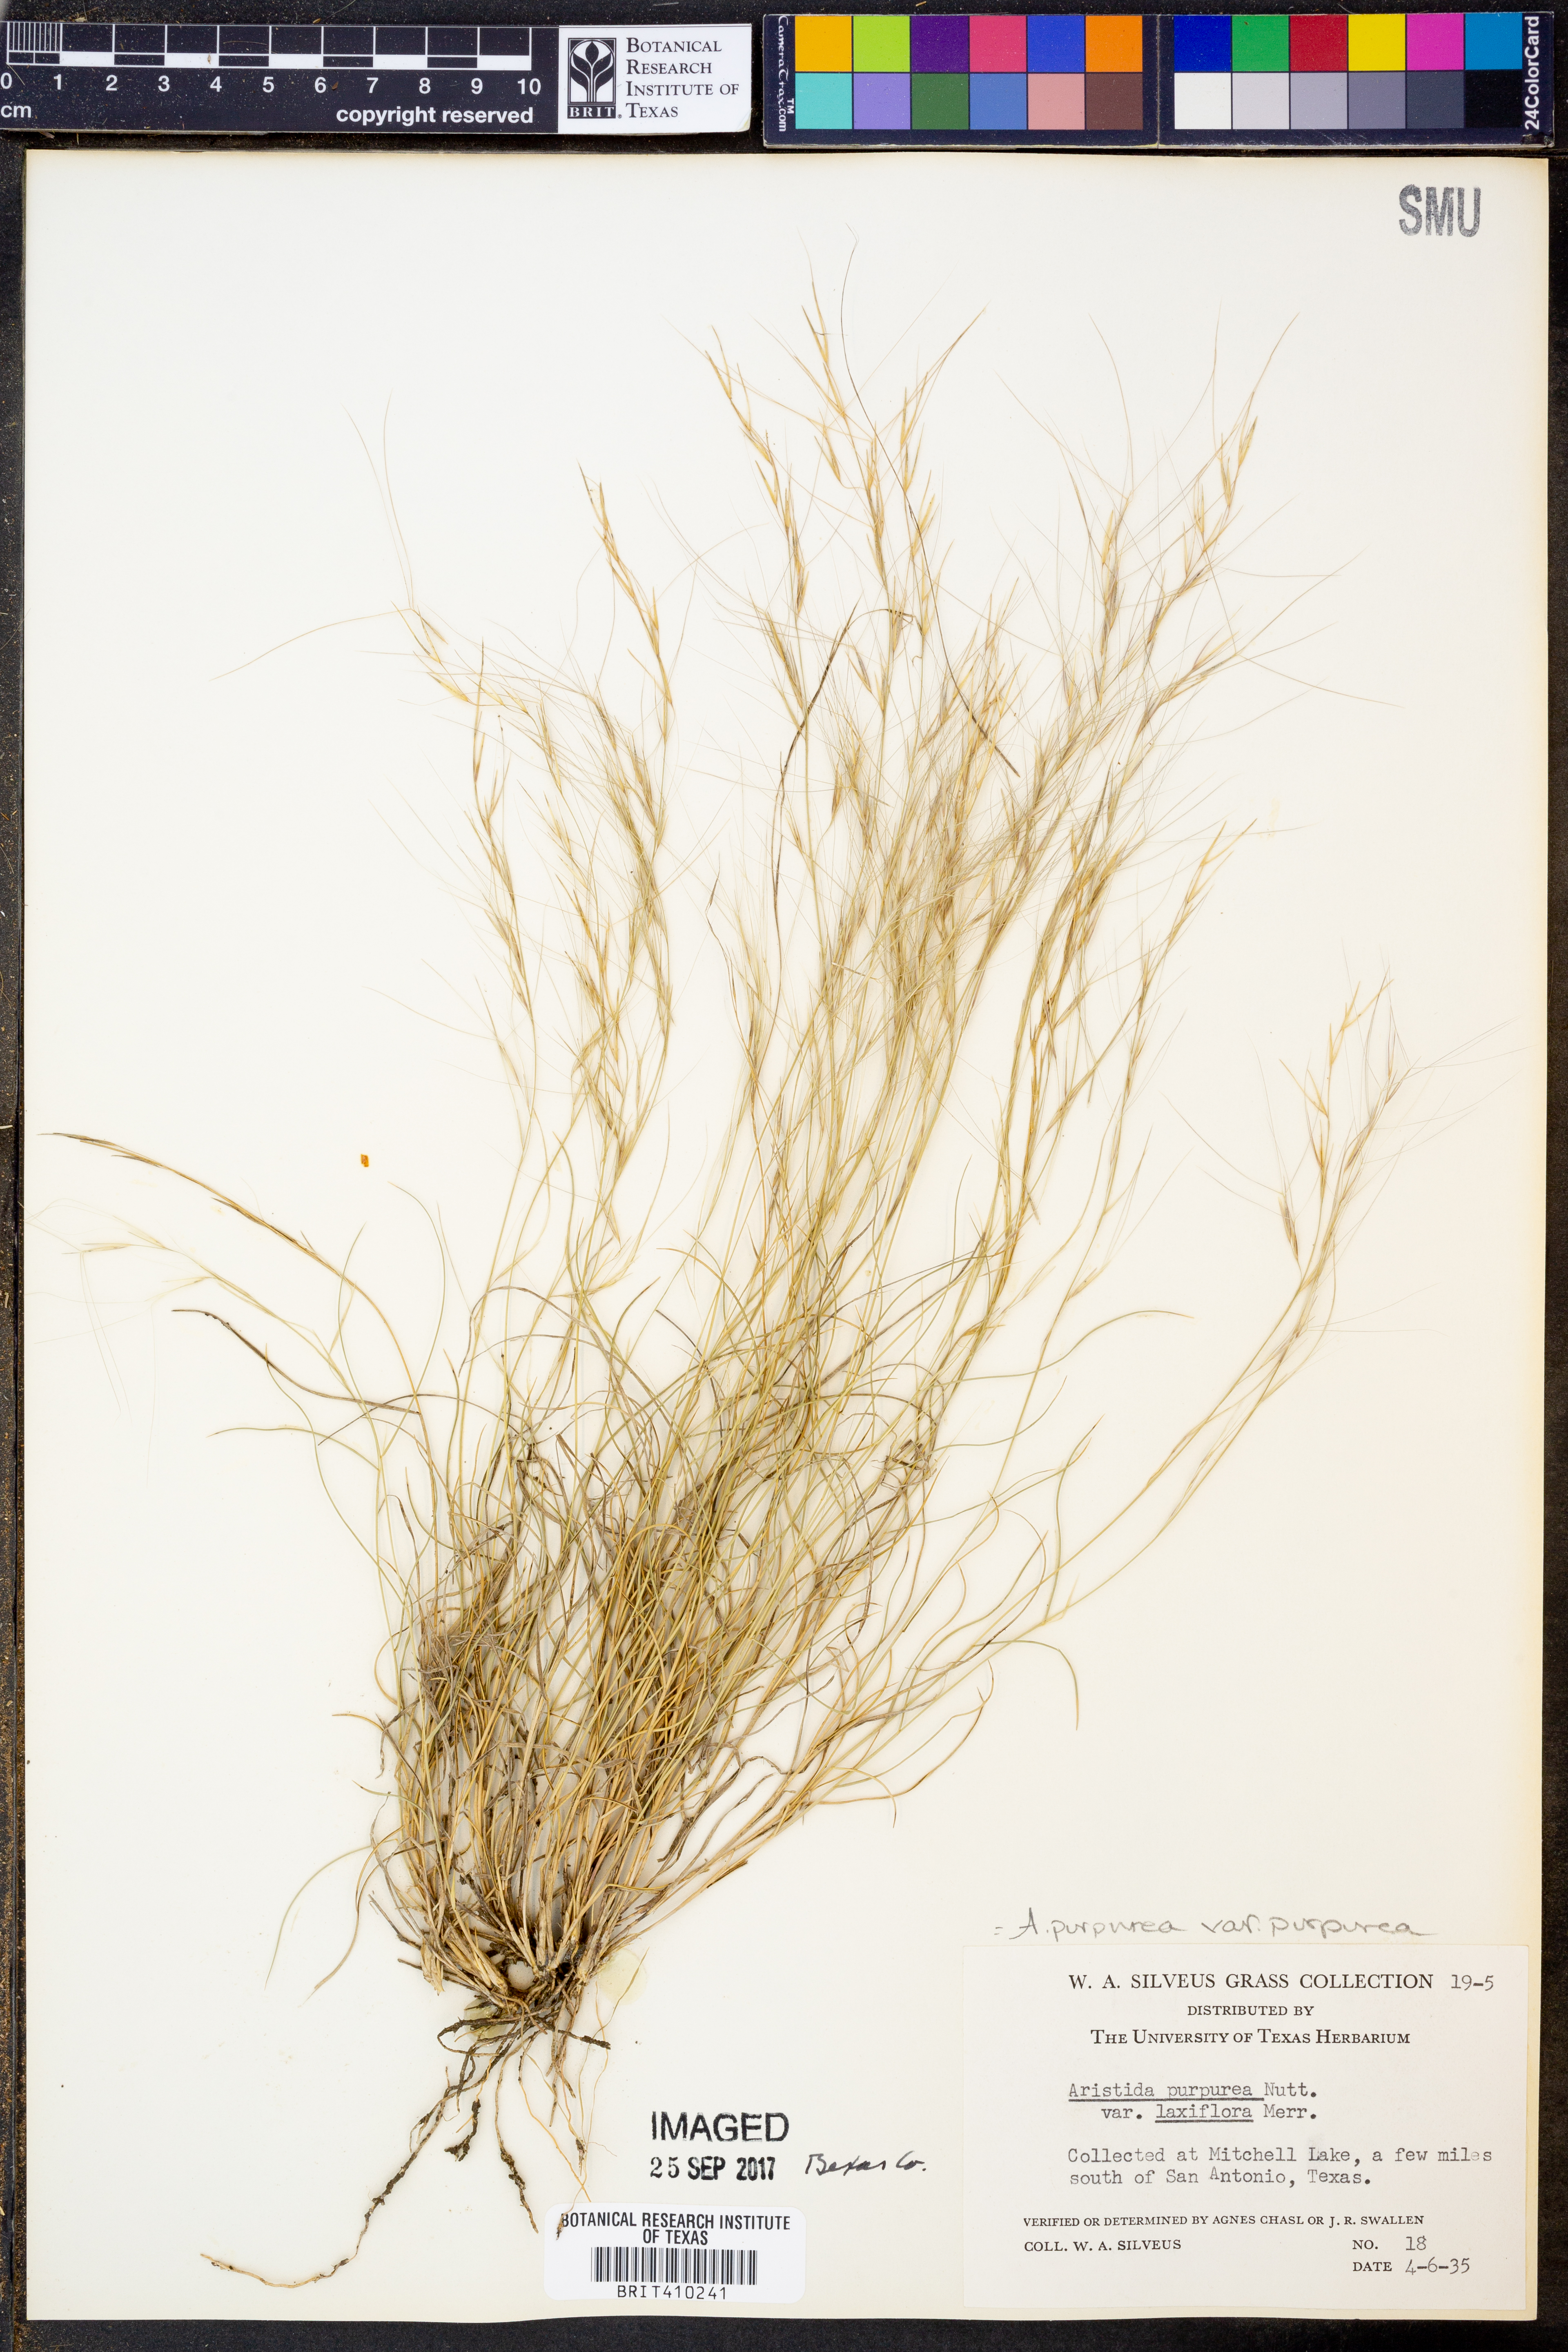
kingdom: Plantae
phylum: Tracheophyta
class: Liliopsida
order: Poales
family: Poaceae
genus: Aristida
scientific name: Aristida purpurea
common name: Purple threeawn
